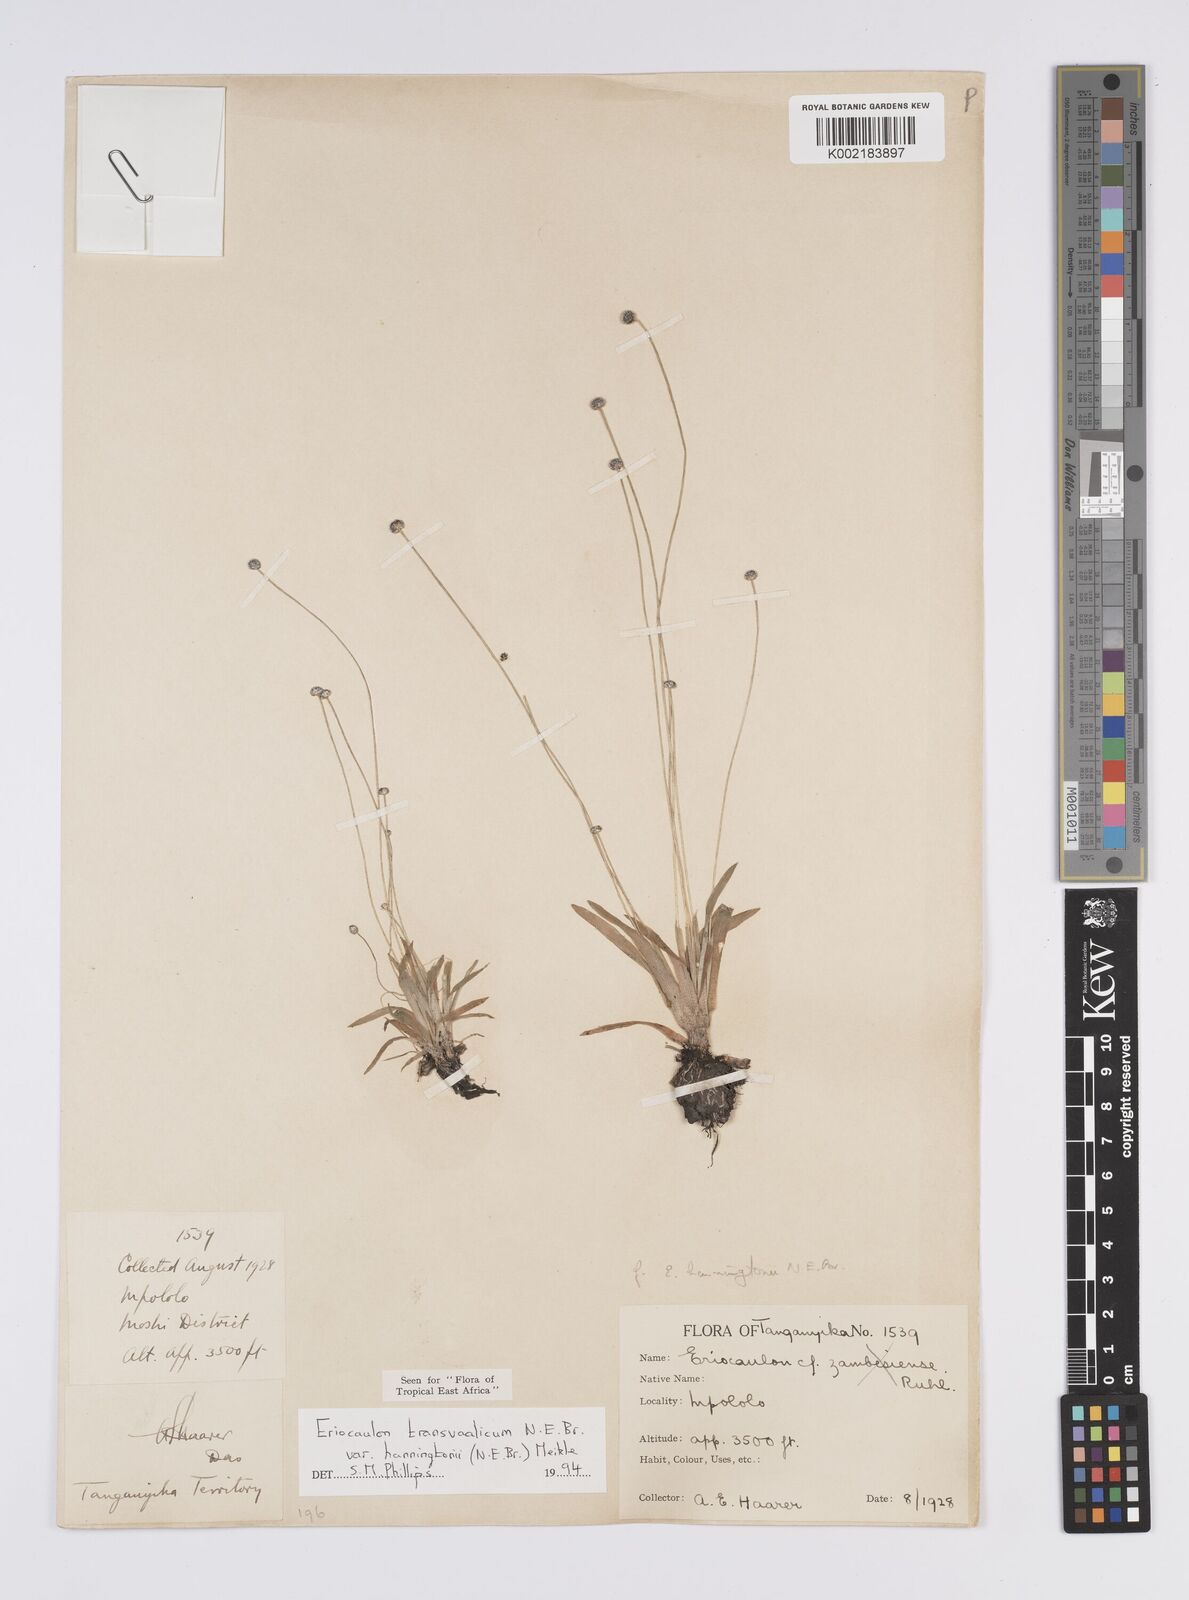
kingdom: Plantae
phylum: Tracheophyta
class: Liliopsida
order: Poales
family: Eriocaulaceae
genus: Eriocaulon
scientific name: Eriocaulon transvaalicum
